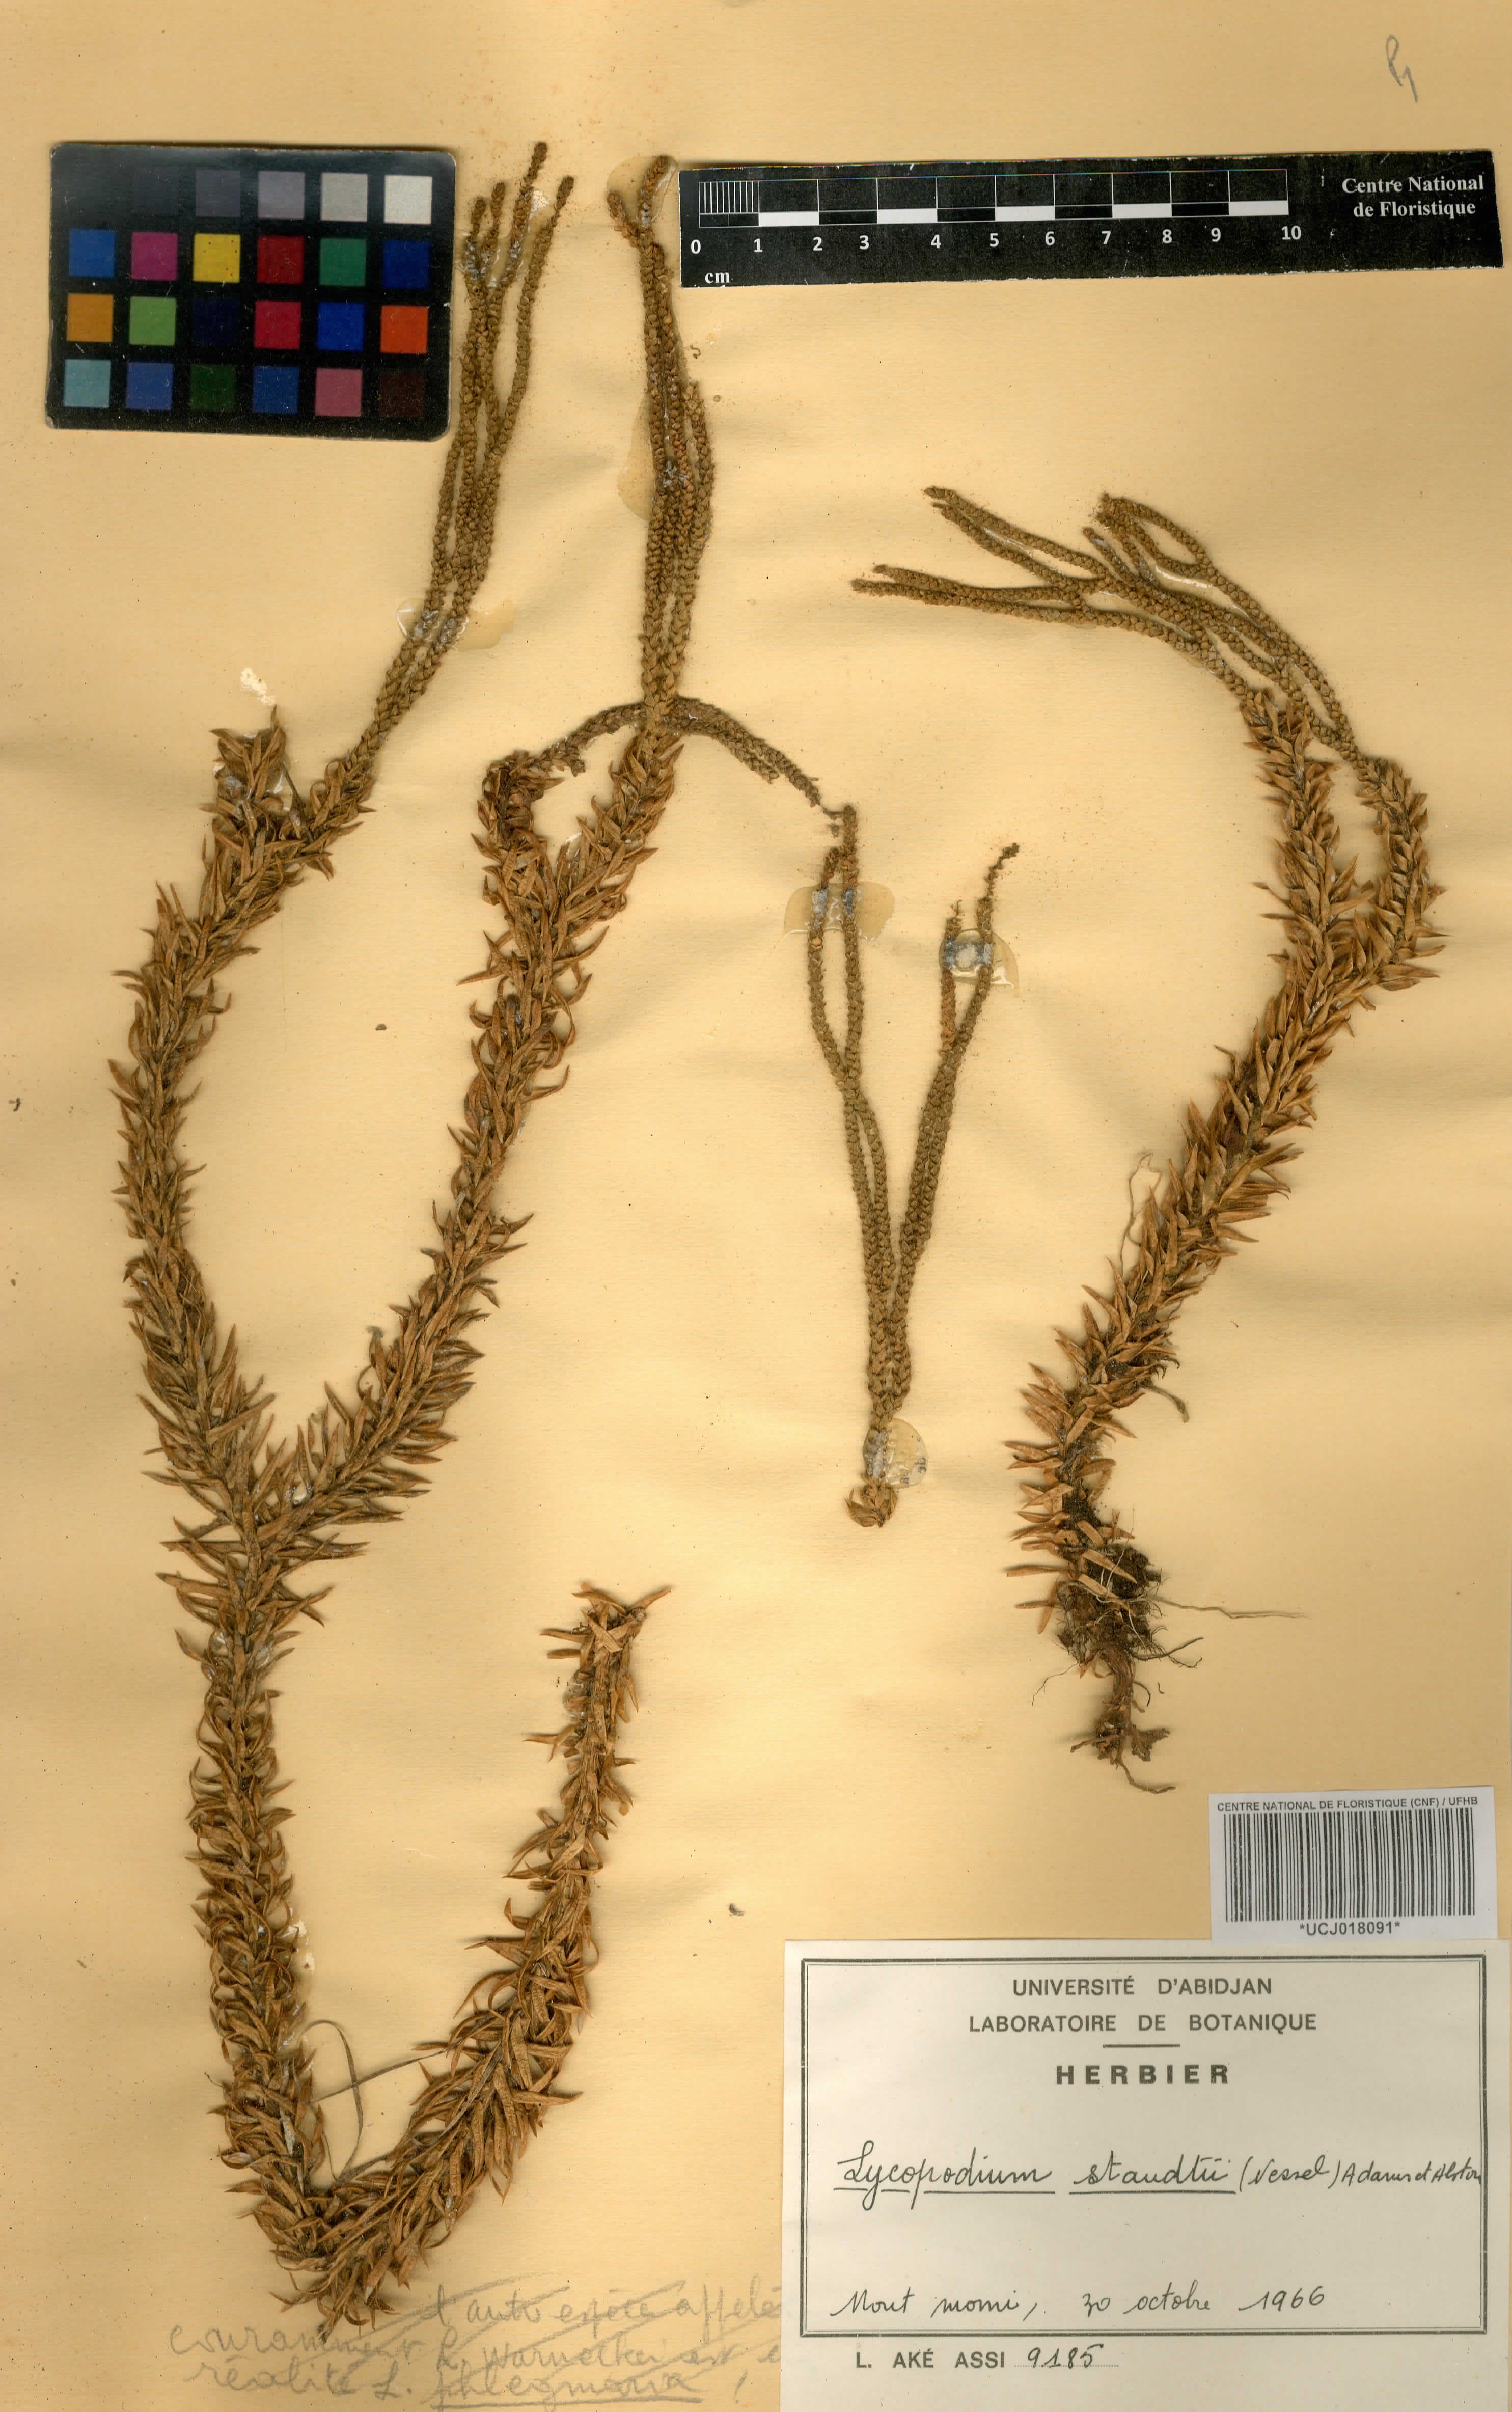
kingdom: Plantae
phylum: Tracheophyta
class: Lycopodiopsida
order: Lycopodiales
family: Lycopodiaceae
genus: Phlegmariurus
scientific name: Phlegmariurus staudtii
